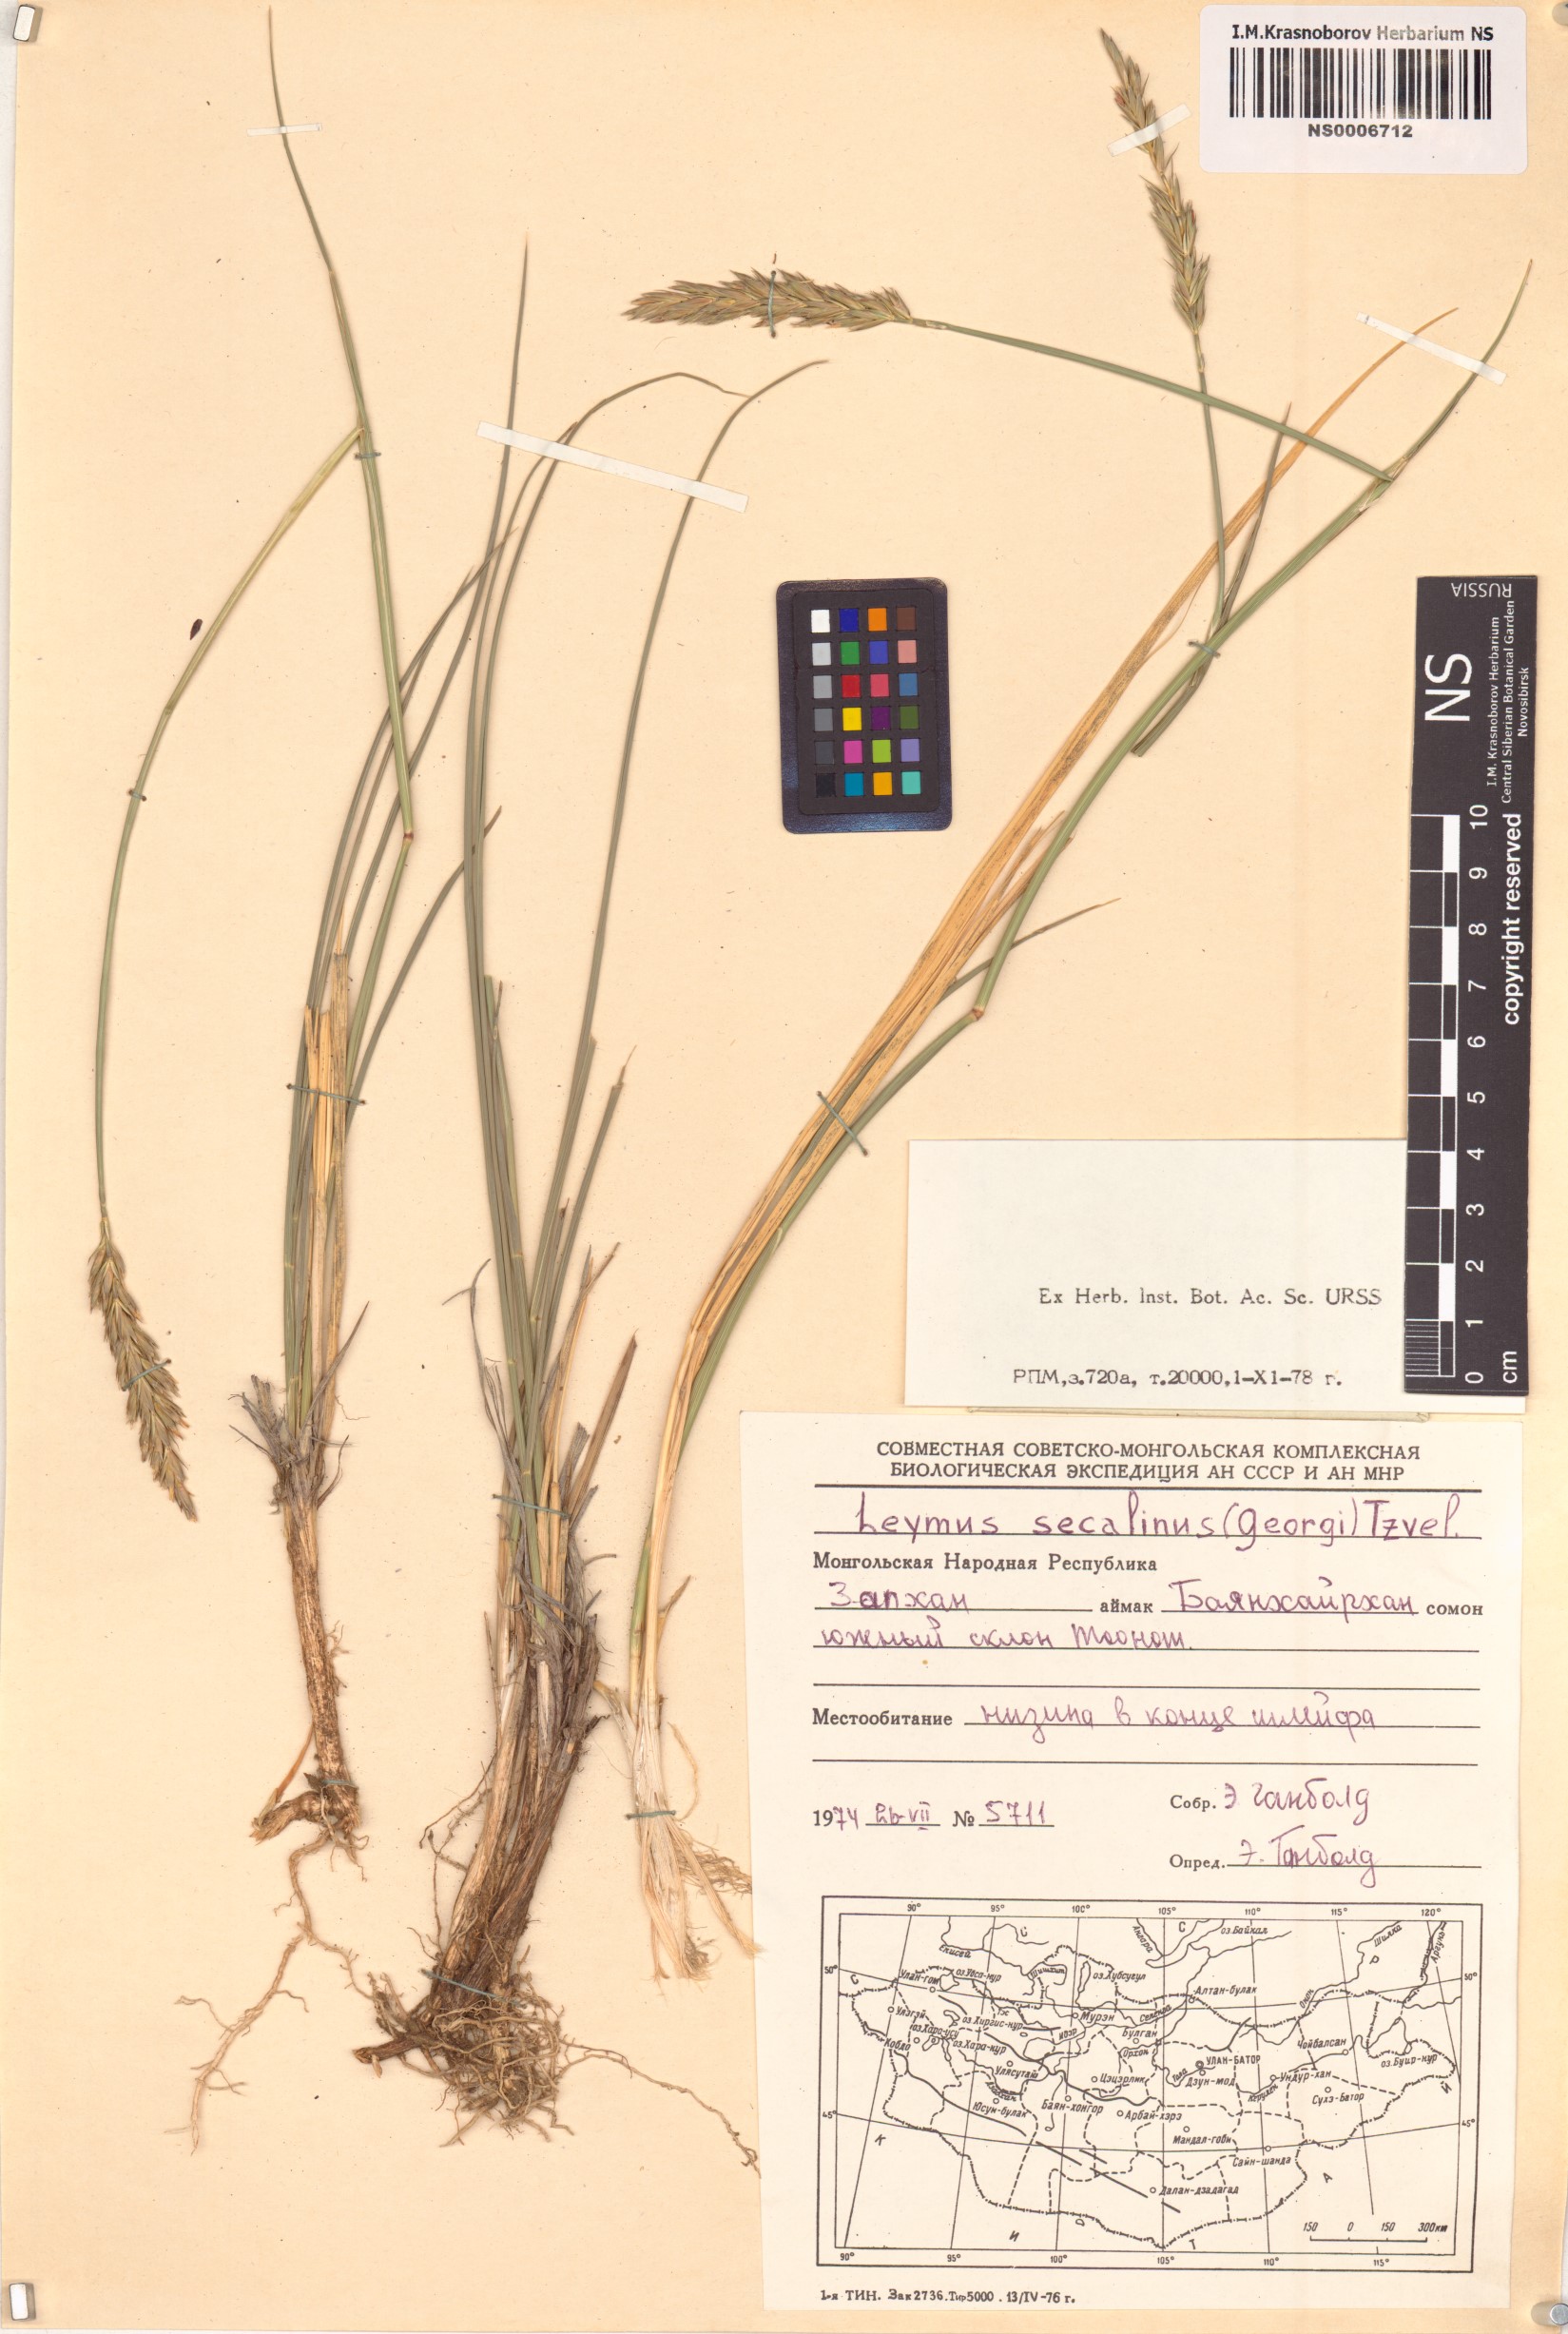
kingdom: Plantae
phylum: Tracheophyta
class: Liliopsida
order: Poales
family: Poaceae
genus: Leymus
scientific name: Leymus secalinus
